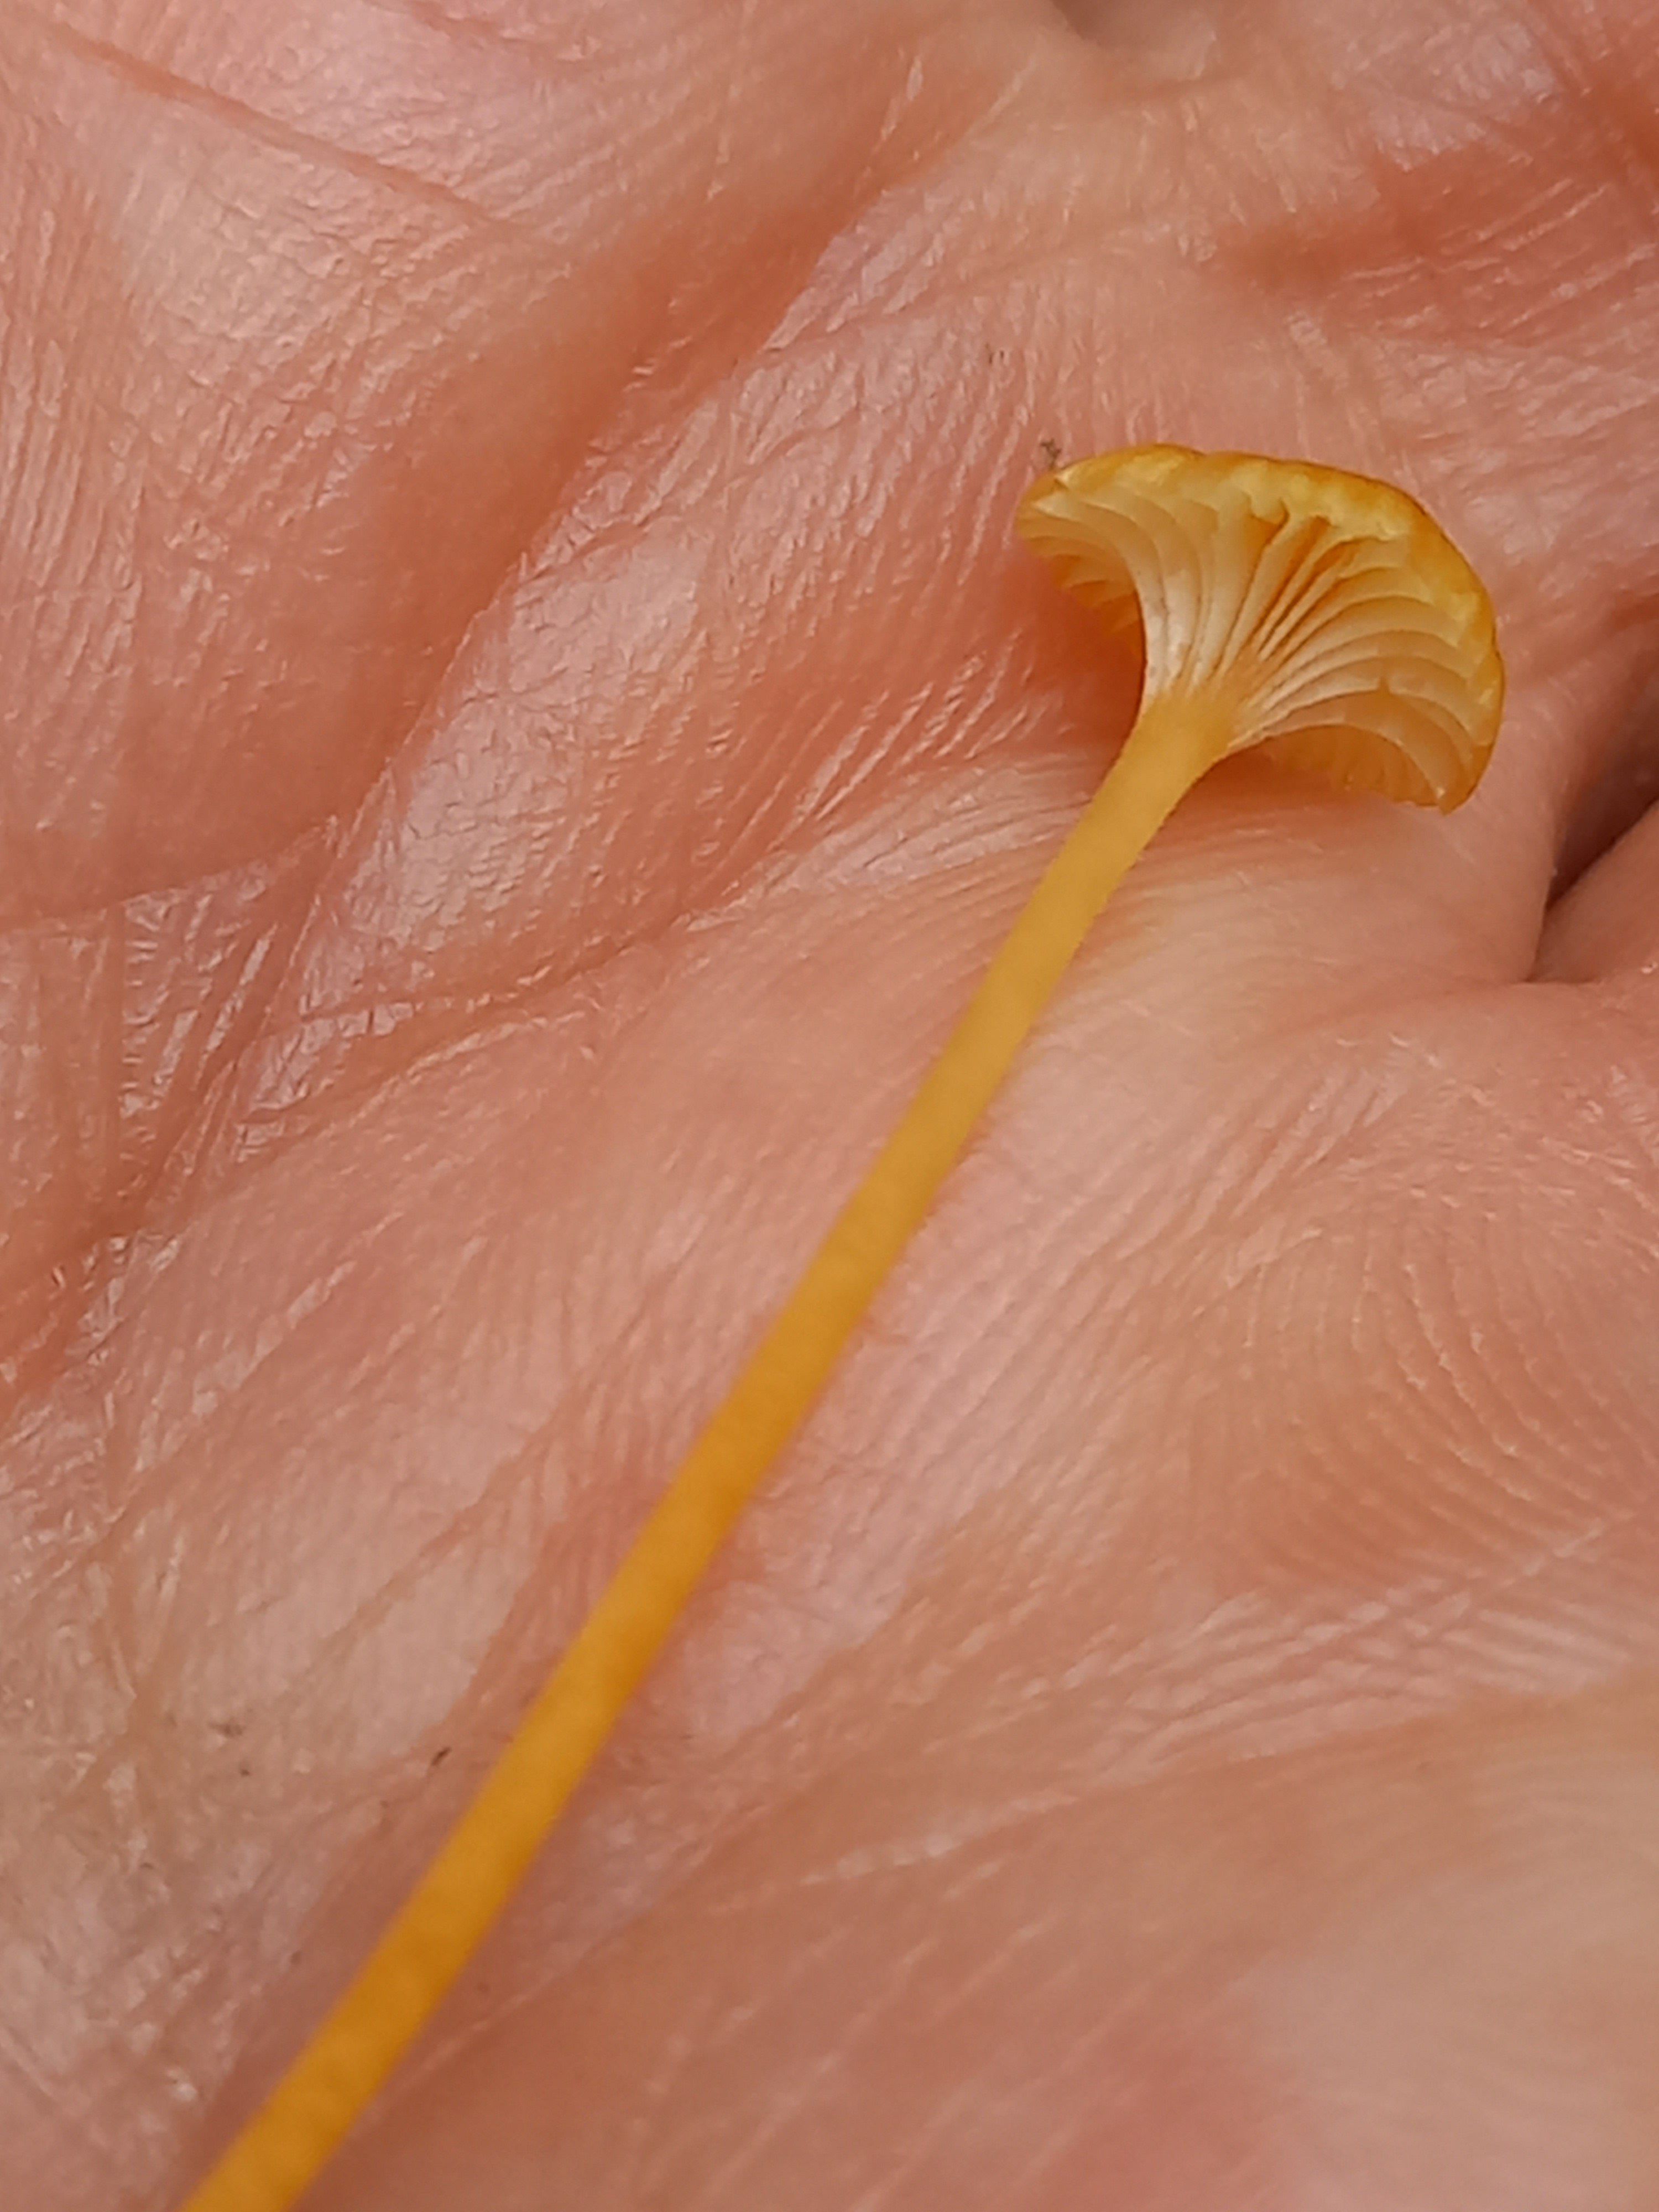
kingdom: Fungi
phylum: Basidiomycota
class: Agaricomycetes
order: Hymenochaetales
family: Rickenellaceae
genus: Rickenella
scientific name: Rickenella fibula
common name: orange mosnavlehat
